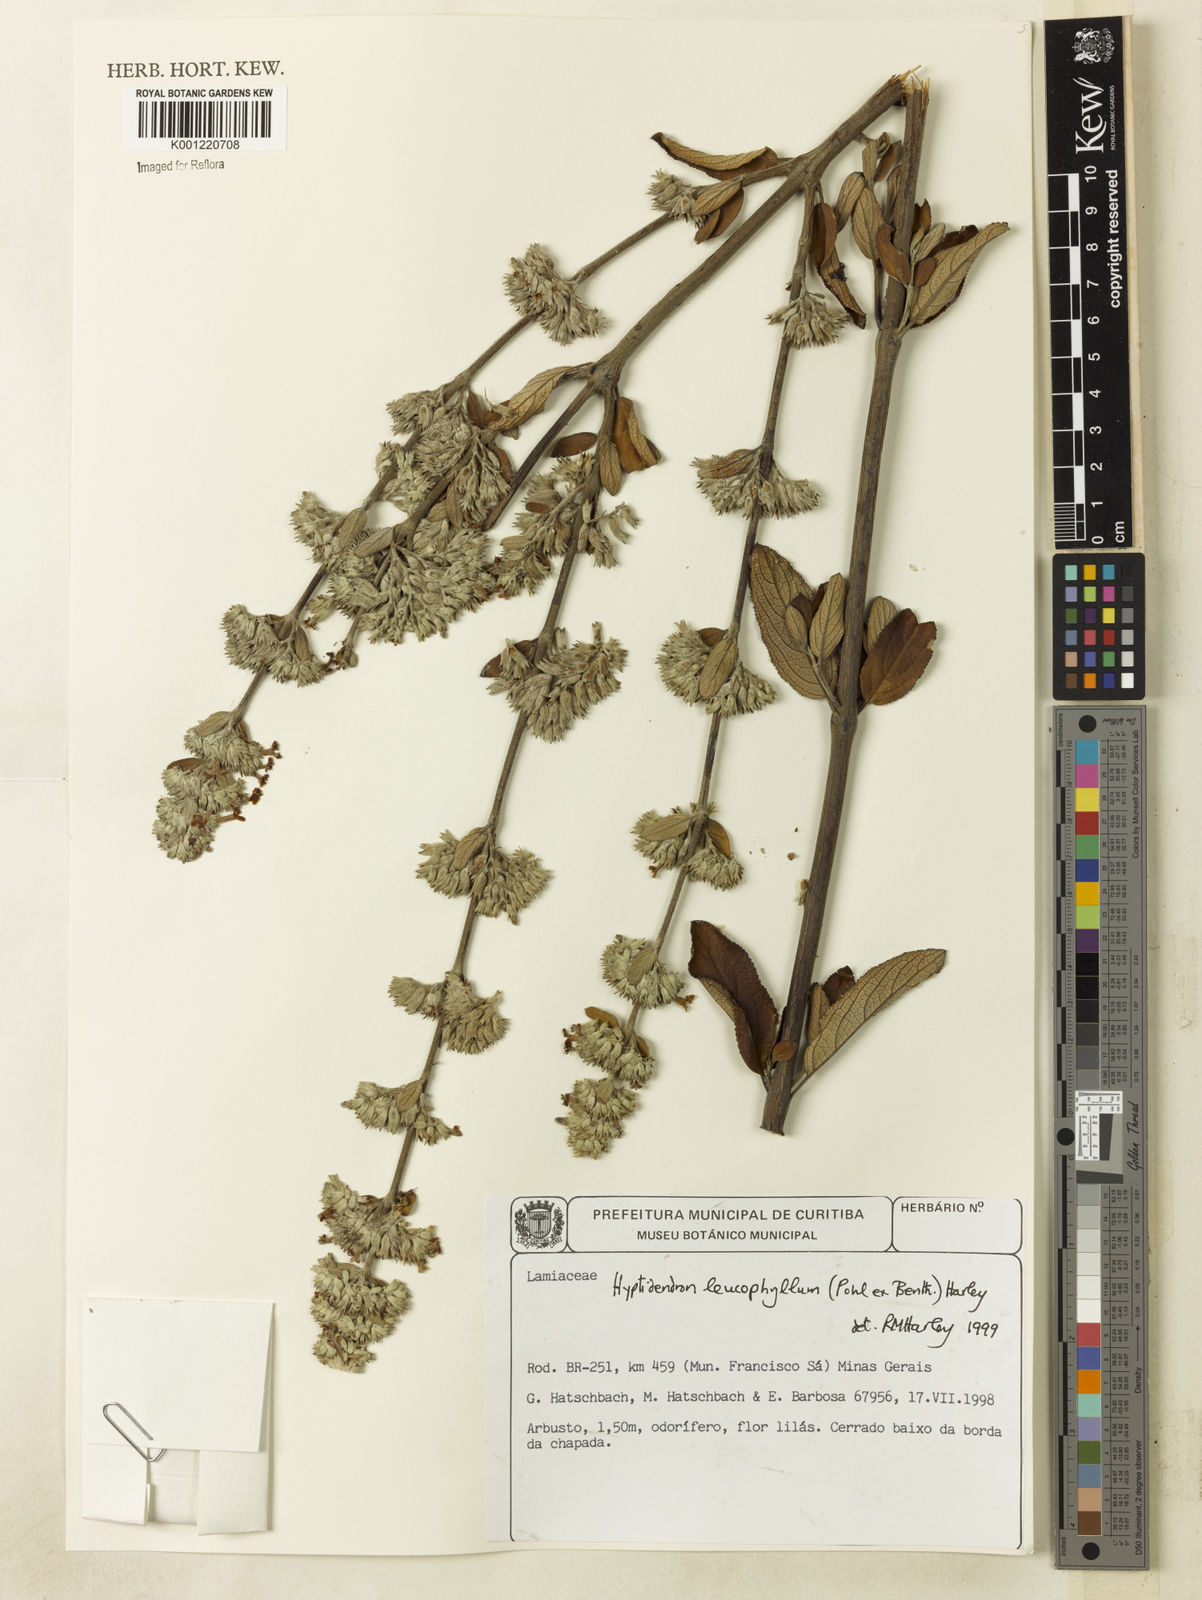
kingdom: Plantae
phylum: Tracheophyta
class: Magnoliopsida
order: Lamiales
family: Lamiaceae
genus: Hyptidendron
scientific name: Hyptidendron leucophyllum
